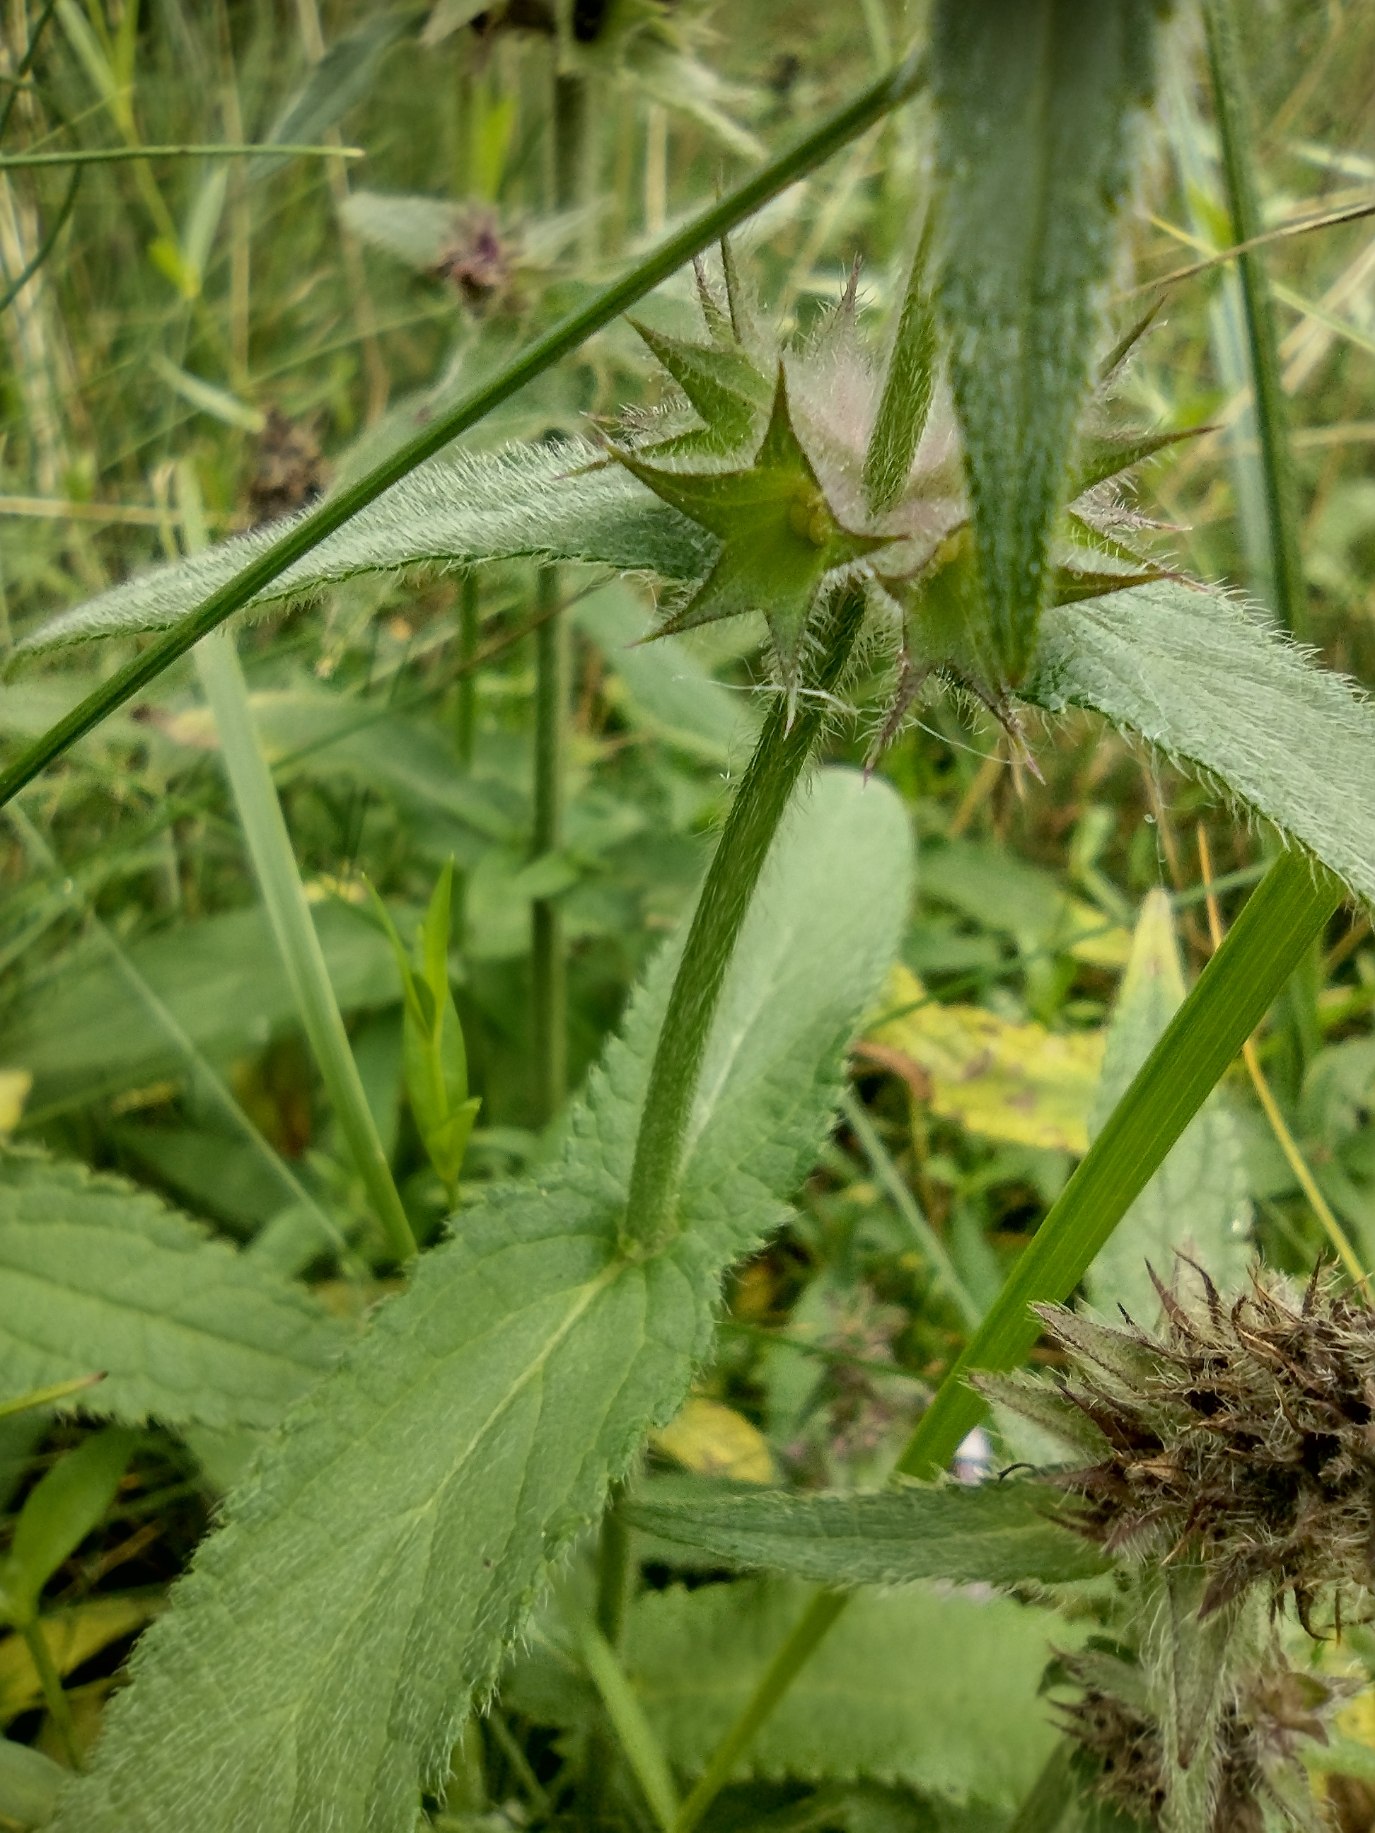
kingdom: Plantae
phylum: Tracheophyta
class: Magnoliopsida
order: Lamiales
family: Lamiaceae
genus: Stachys
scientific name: Stachys palustris
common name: Kær-galtetand
